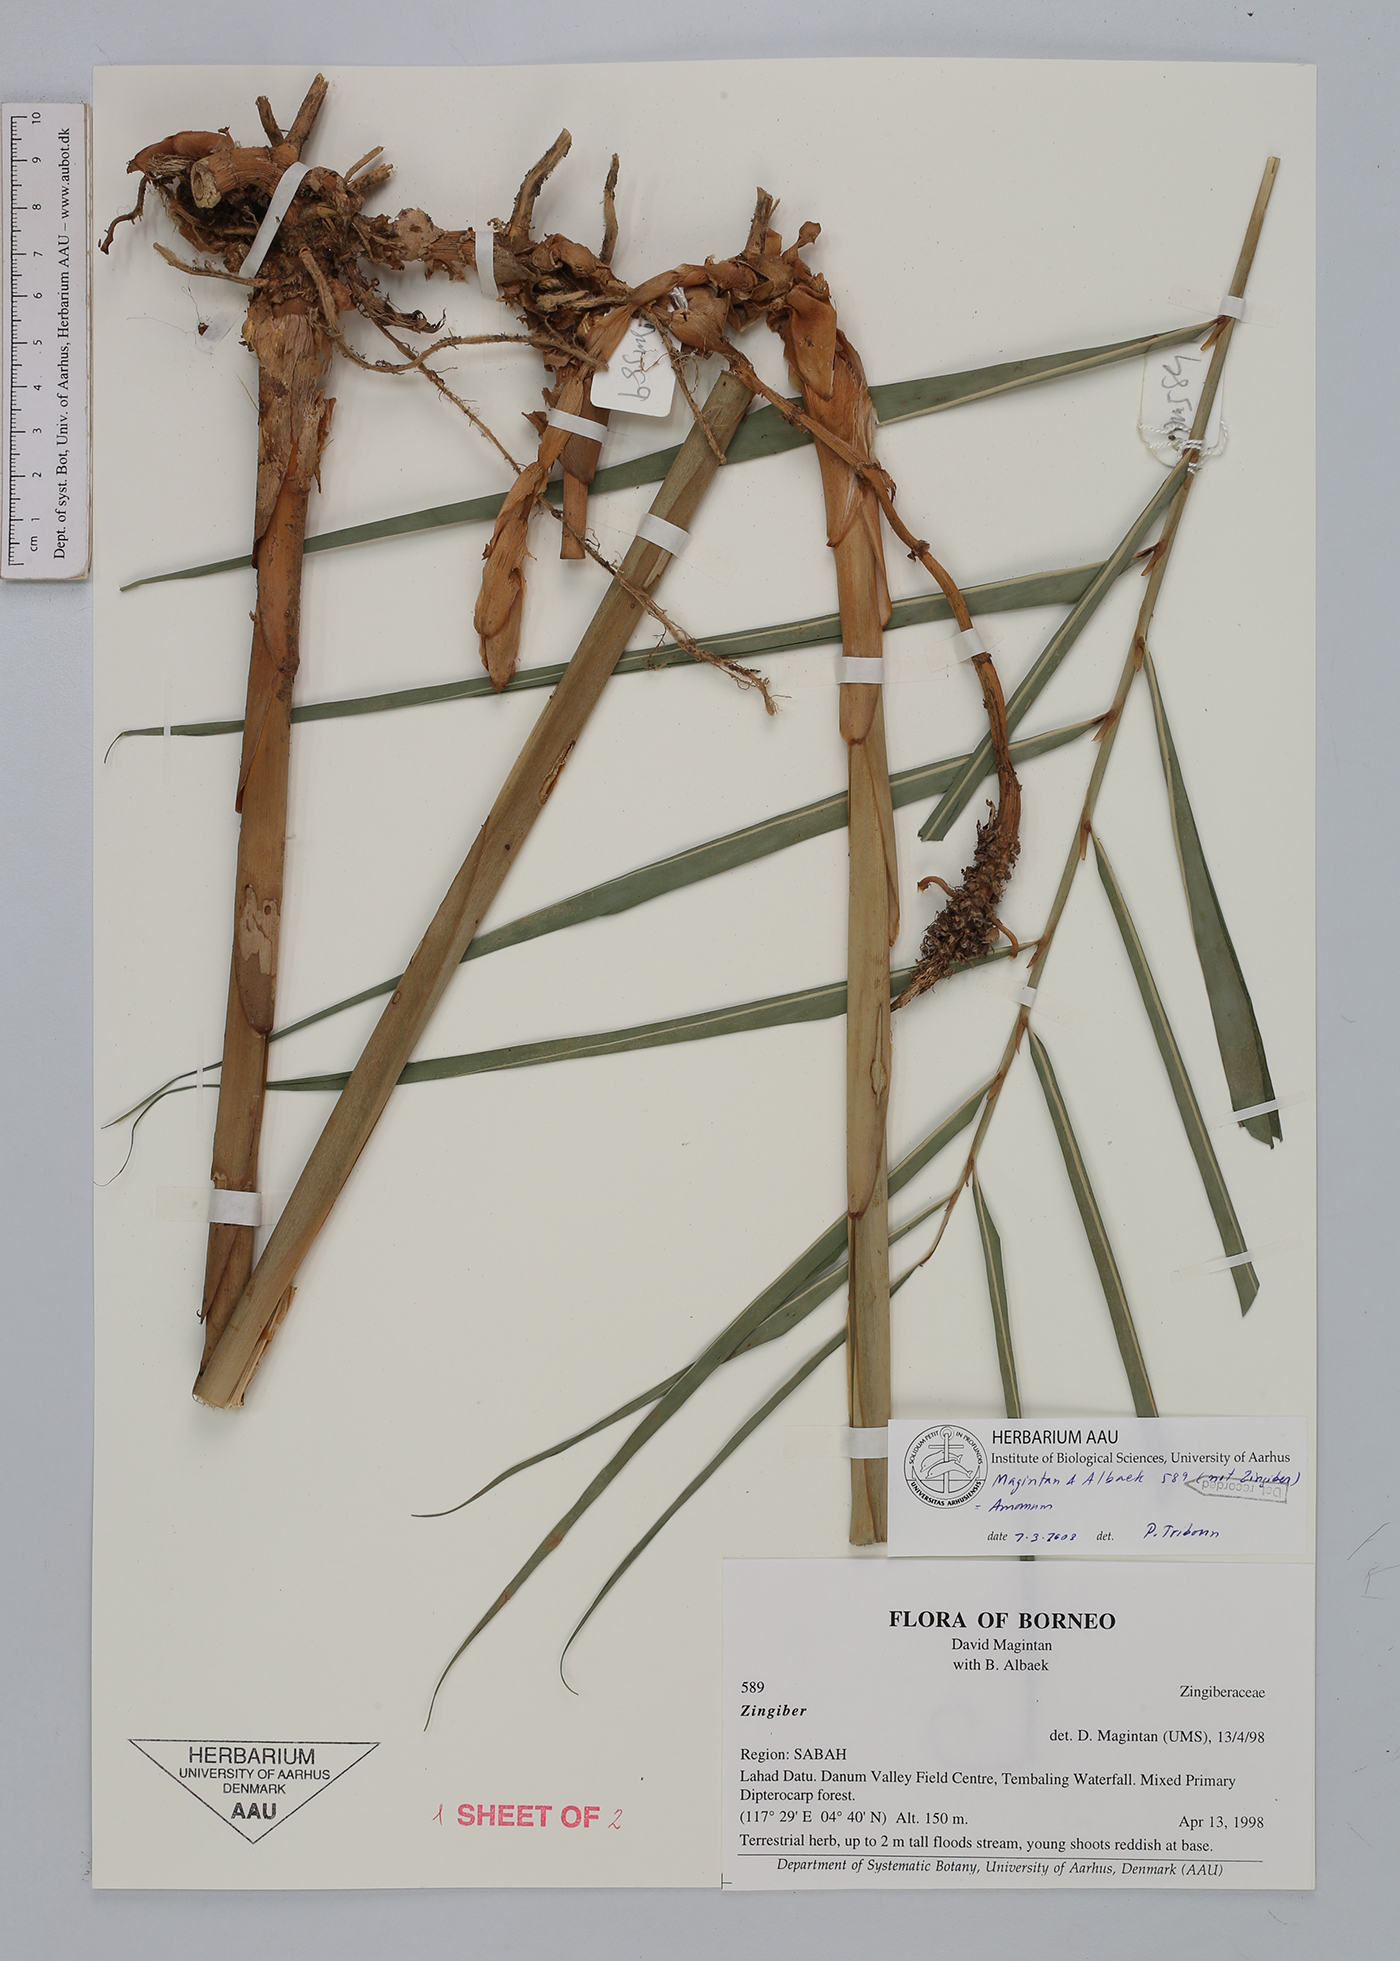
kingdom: Plantae
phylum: Tracheophyta
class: Liliopsida
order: Zingiberales
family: Zingiberaceae
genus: Amomum
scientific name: Amomum
